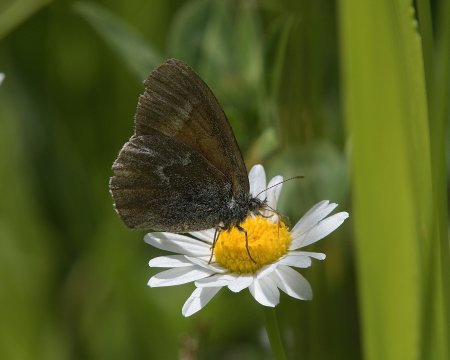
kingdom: Animalia
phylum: Arthropoda
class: Insecta
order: Lepidoptera
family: Nymphalidae
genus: Coenonympha
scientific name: Coenonympha tullia
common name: Large Heath
